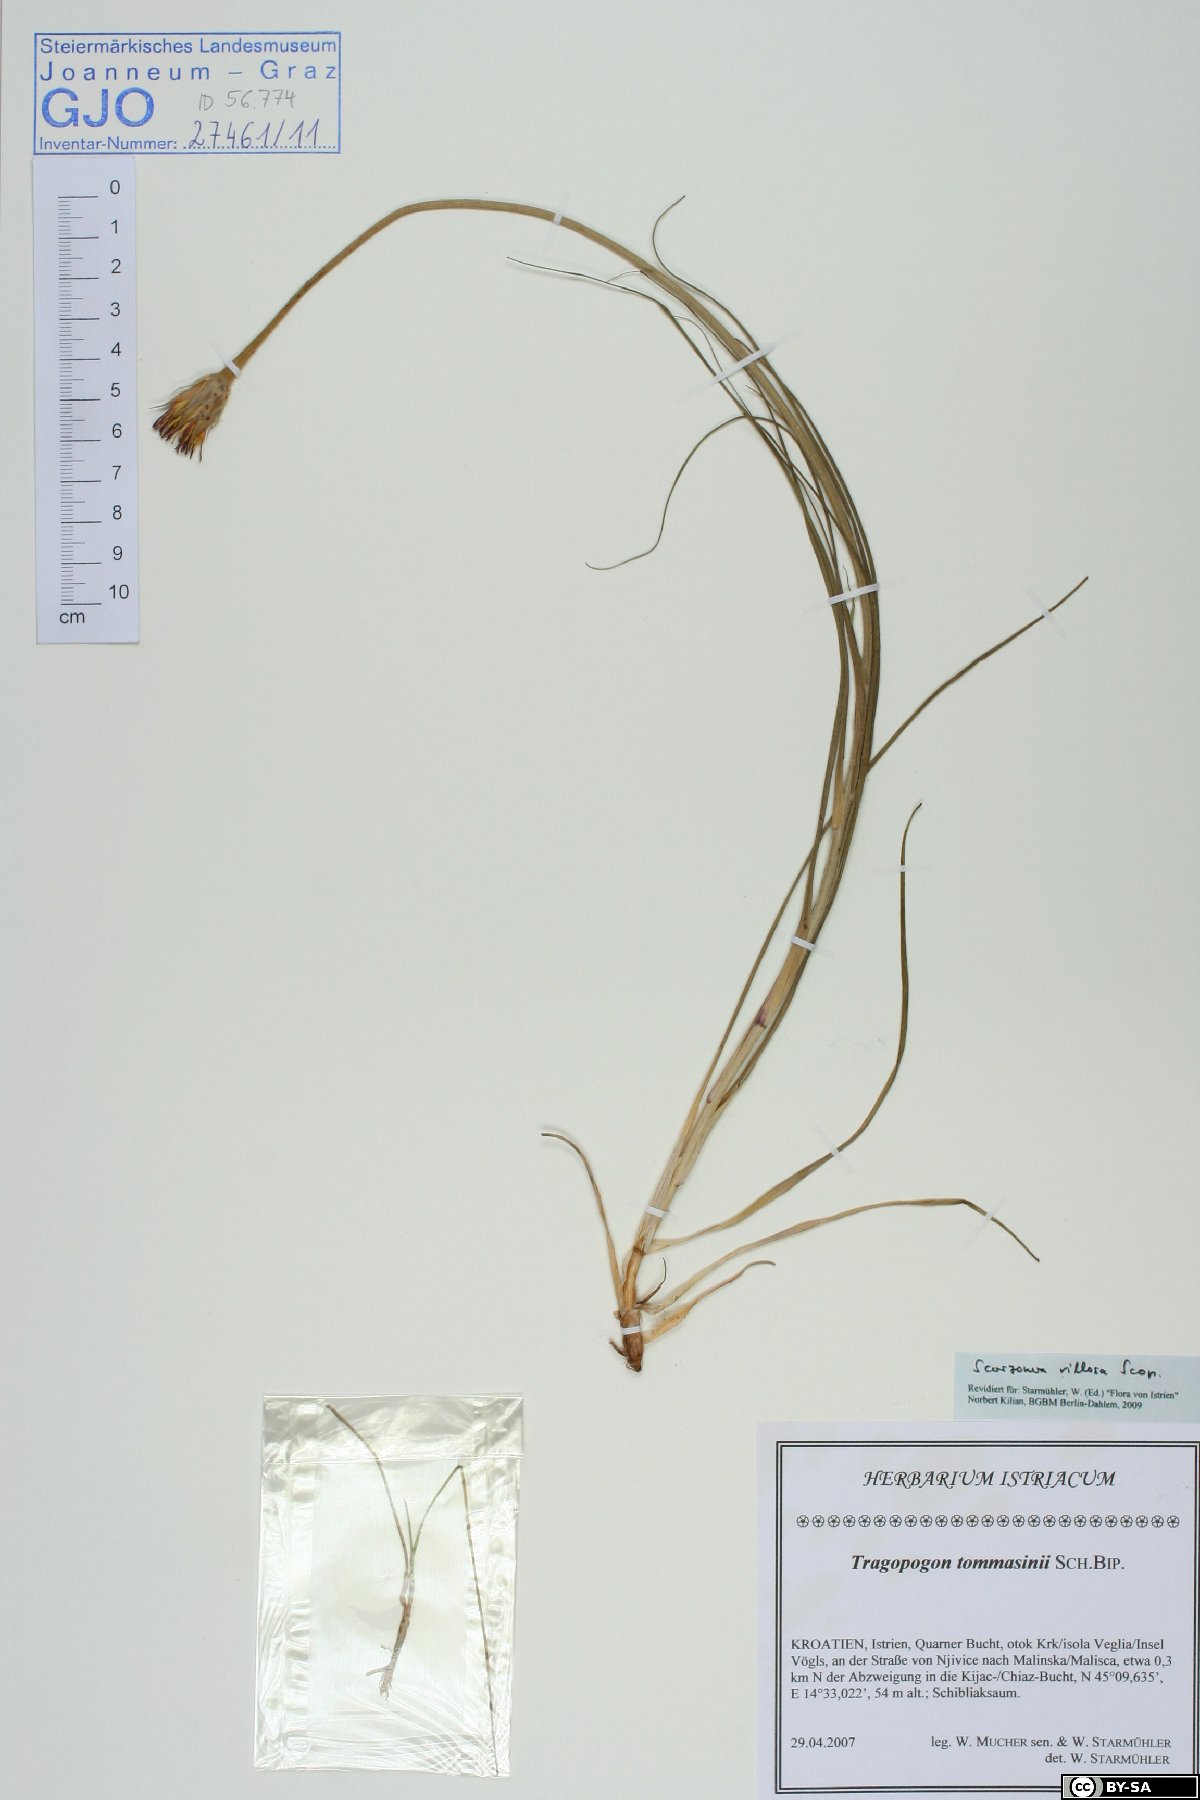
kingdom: Plantae
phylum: Tracheophyta
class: Magnoliopsida
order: Asterales
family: Asteraceae
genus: Gelasia
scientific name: Gelasia villosa
